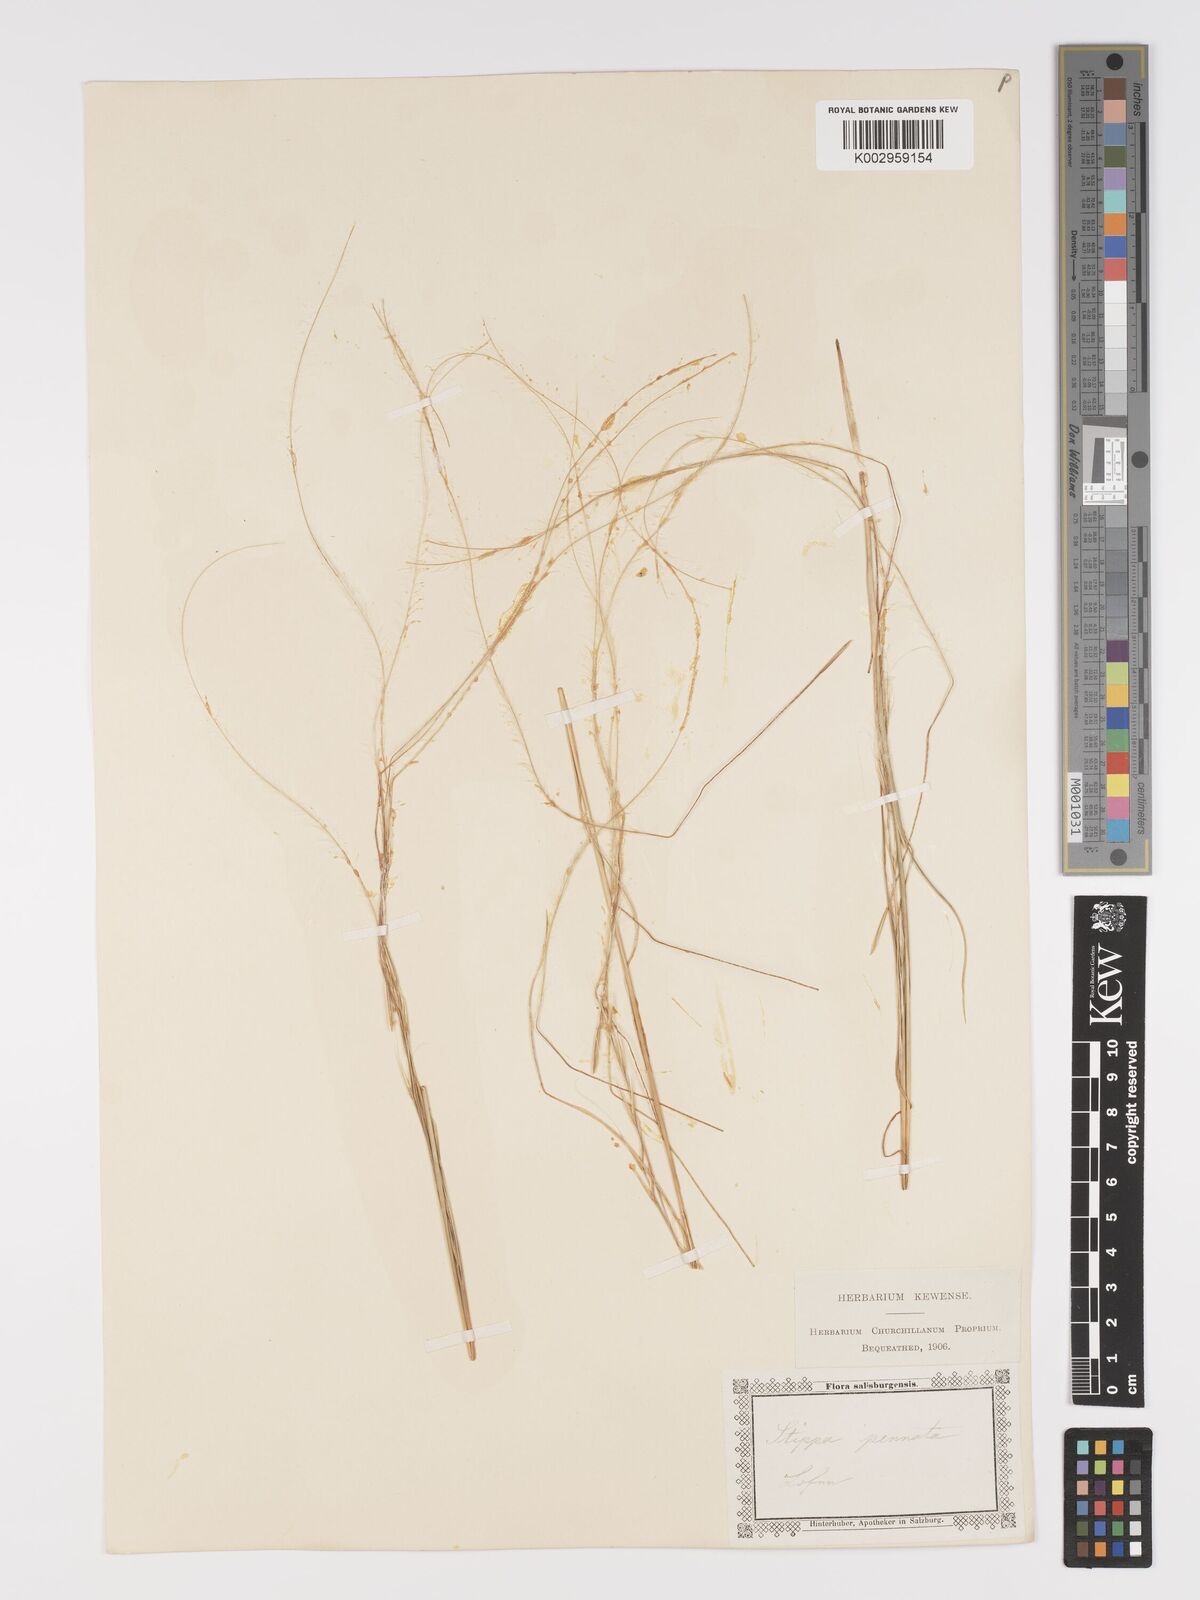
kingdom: Plantae
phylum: Tracheophyta
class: Liliopsida
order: Poales
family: Poaceae
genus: Stipa
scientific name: Stipa pennata
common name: European feather grass
